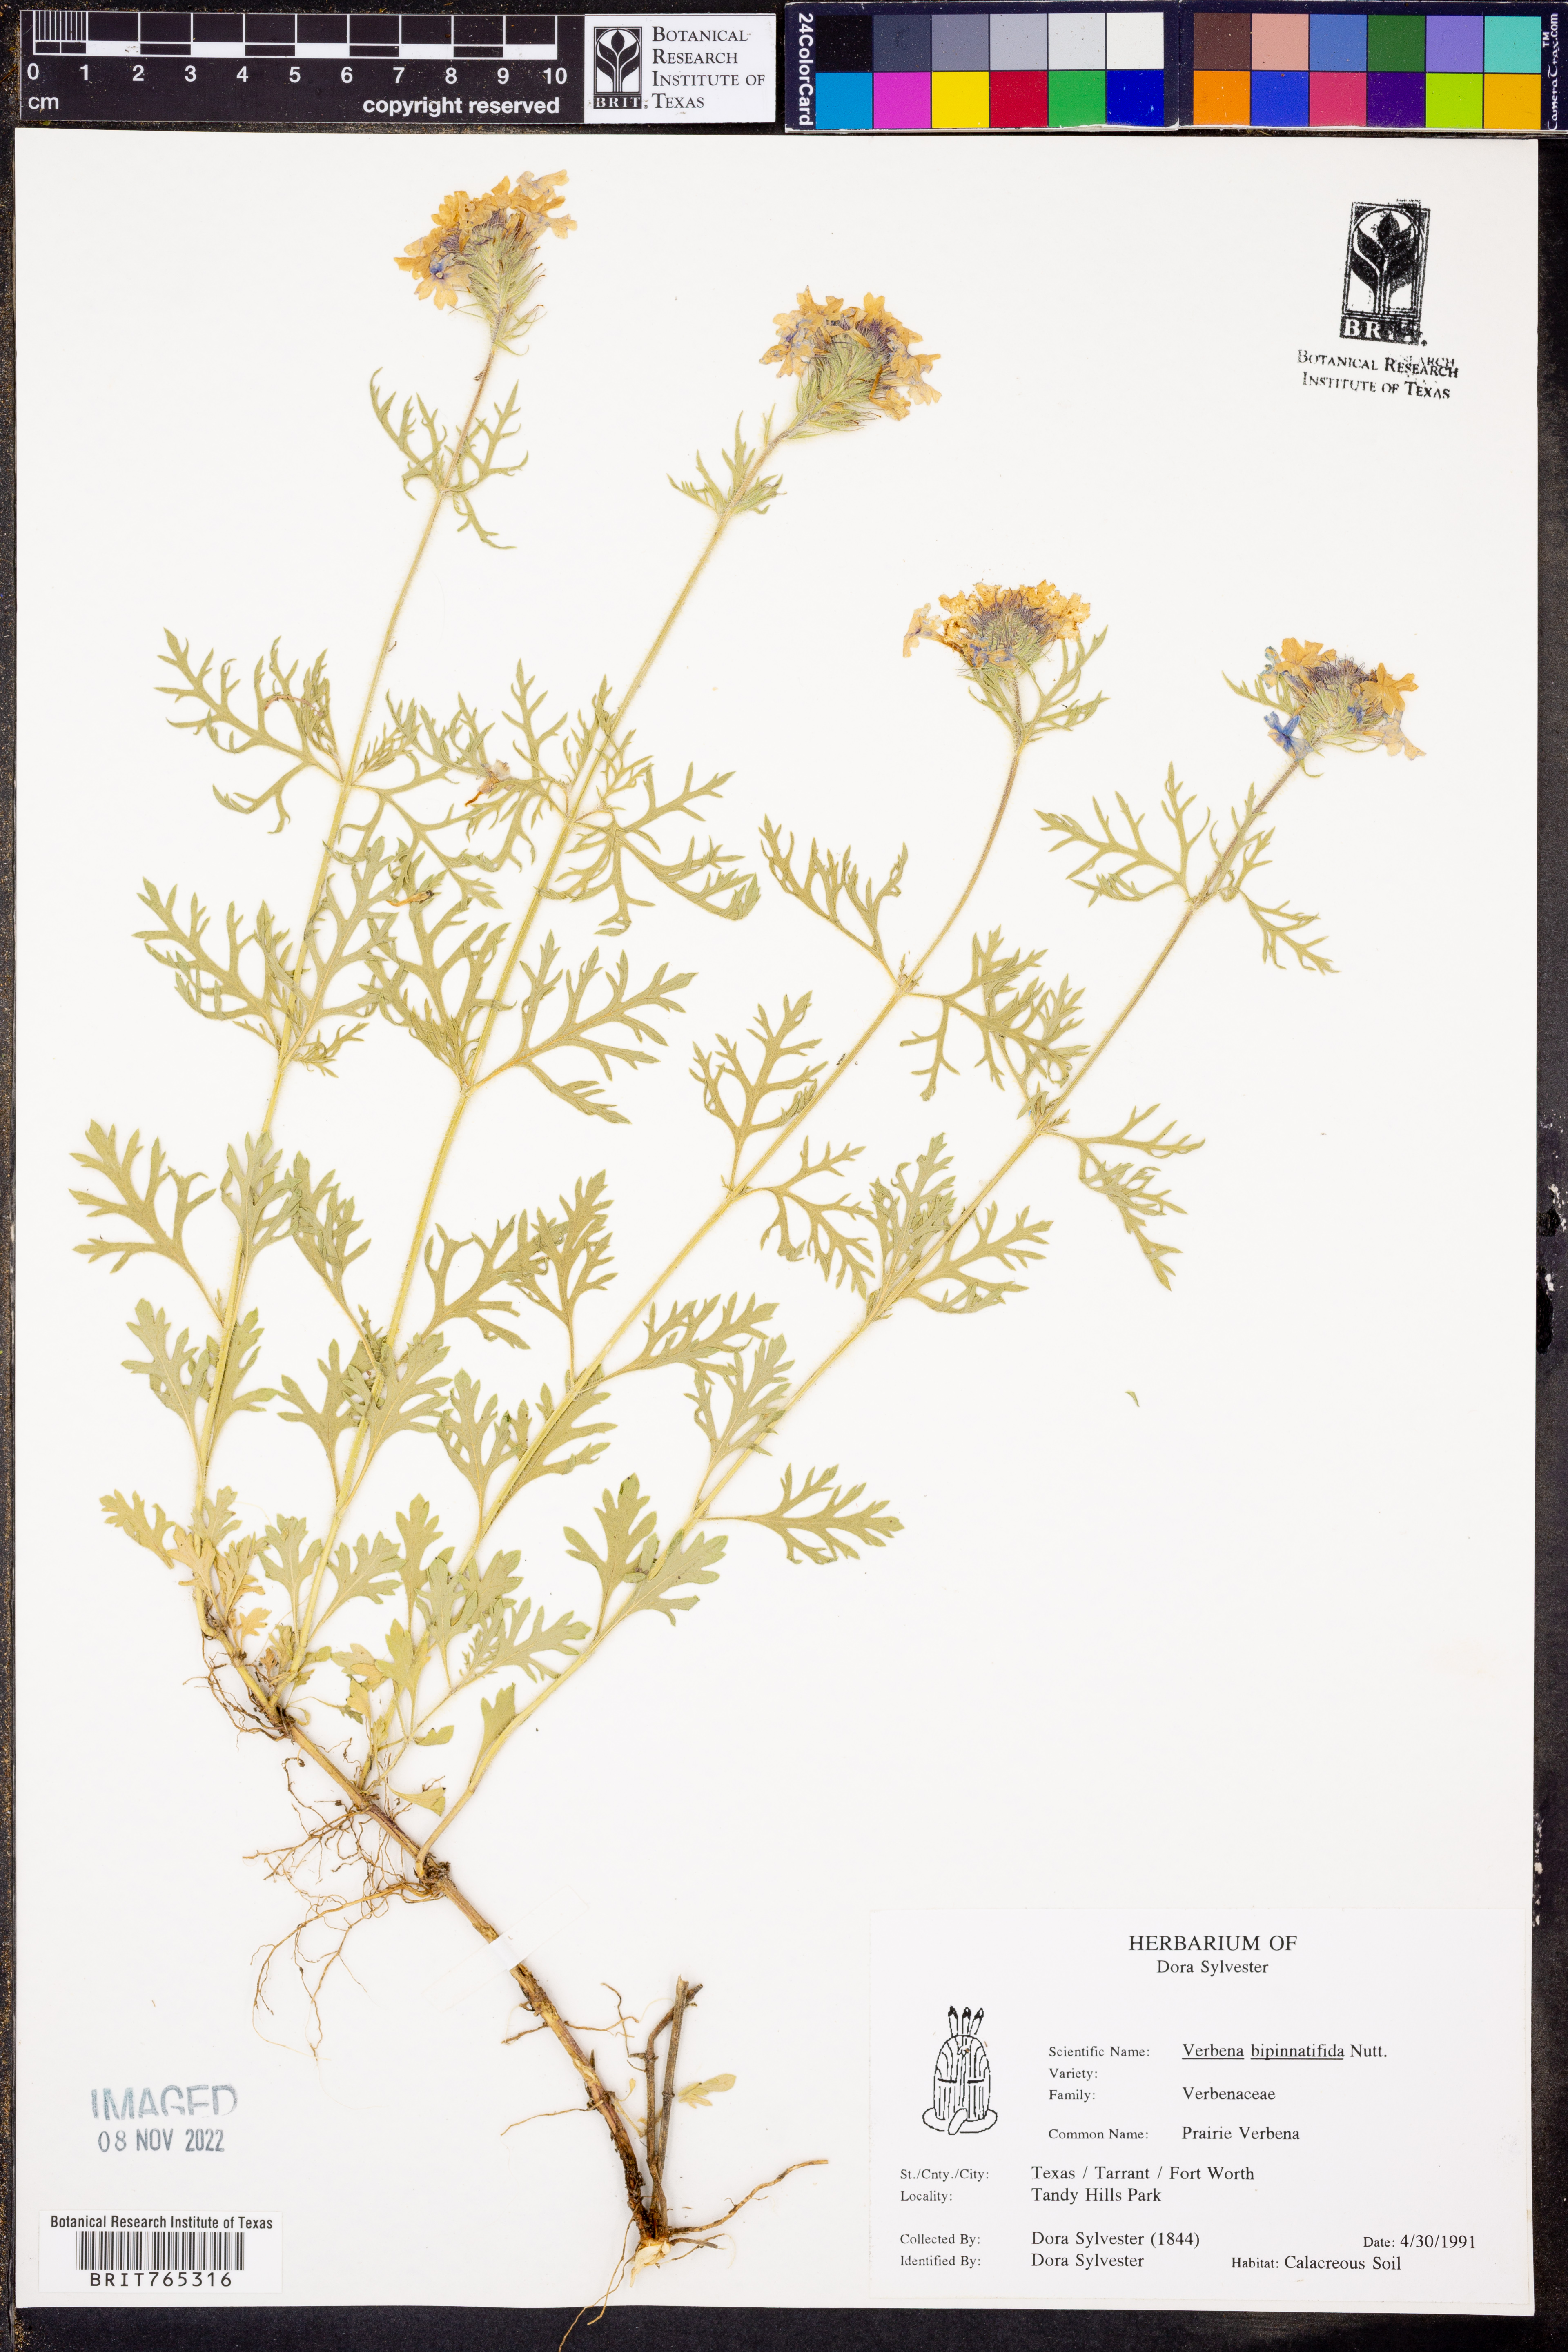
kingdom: Plantae
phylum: Tracheophyta
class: Magnoliopsida
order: Lamiales
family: Verbenaceae
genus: Verbena
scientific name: Verbena bipinnatifida
